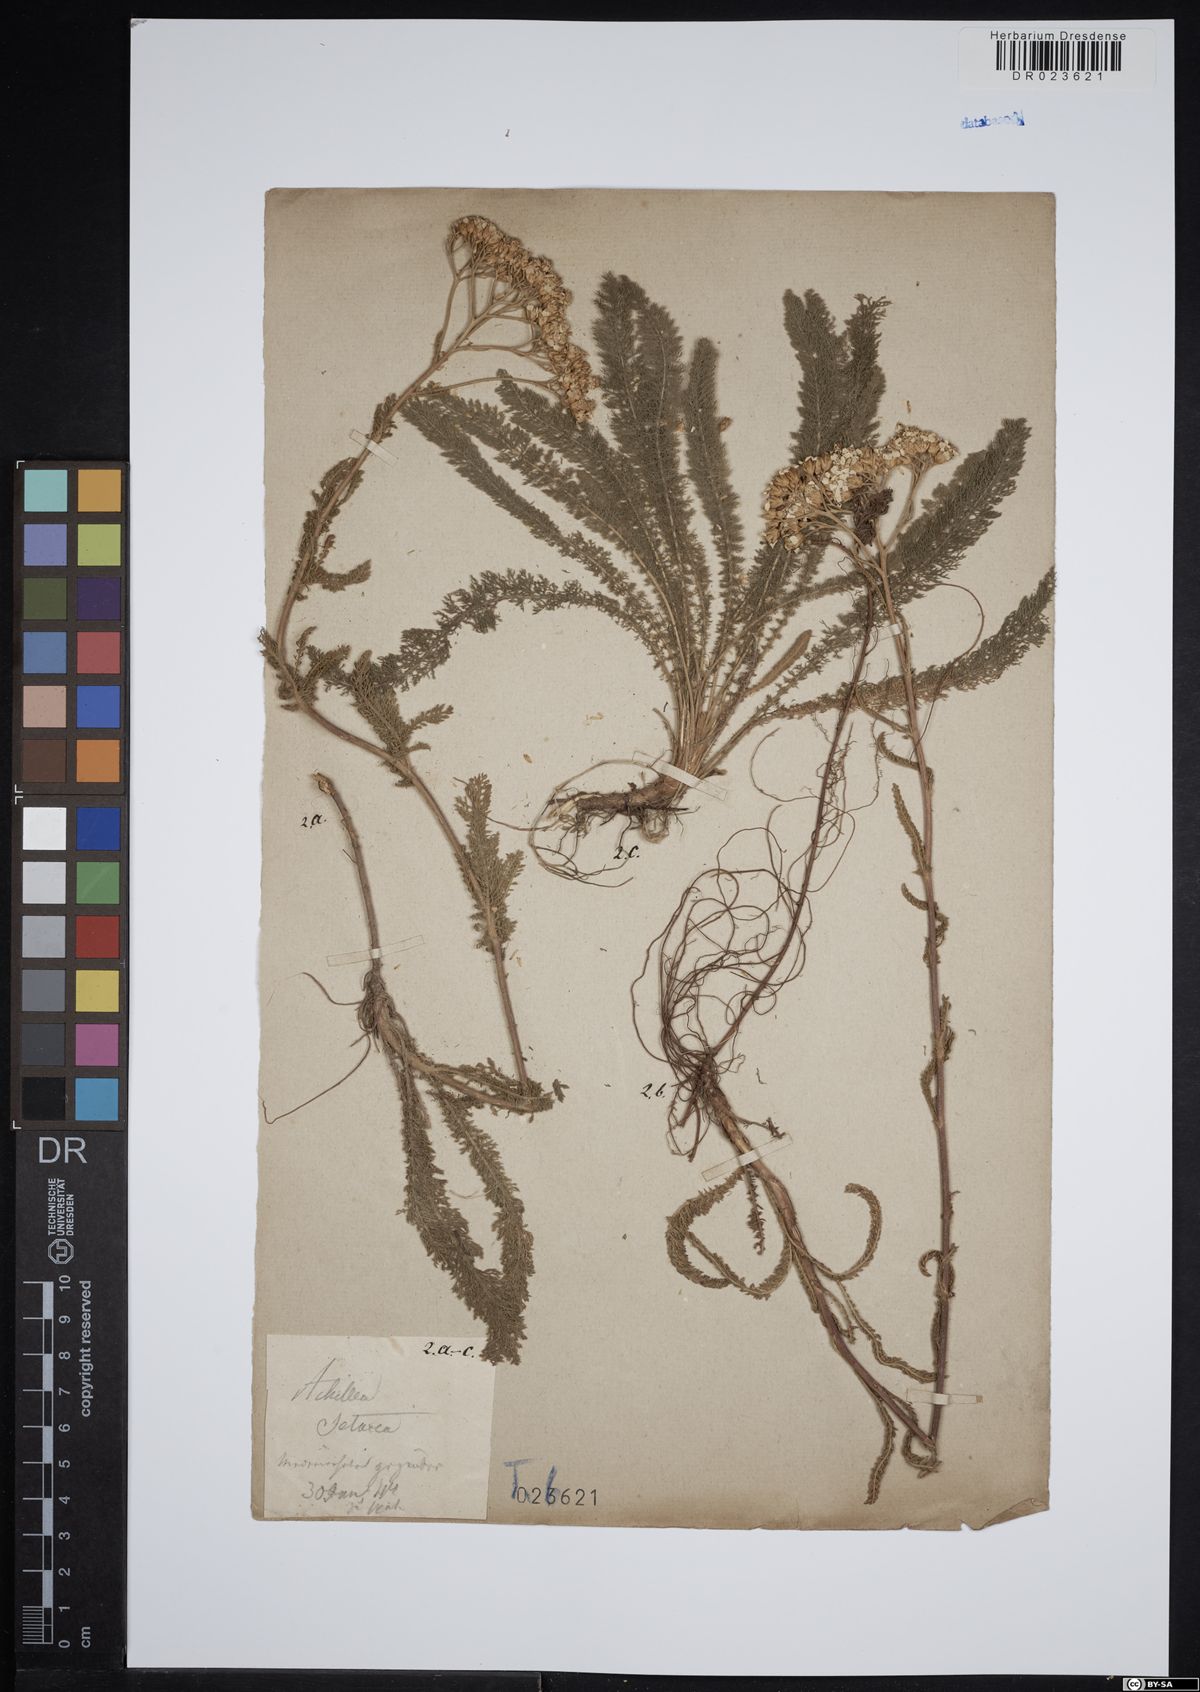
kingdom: Plantae
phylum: Tracheophyta
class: Magnoliopsida
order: Asterales
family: Asteraceae
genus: Achillea
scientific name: Achillea setacea
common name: Bristly yarrow
